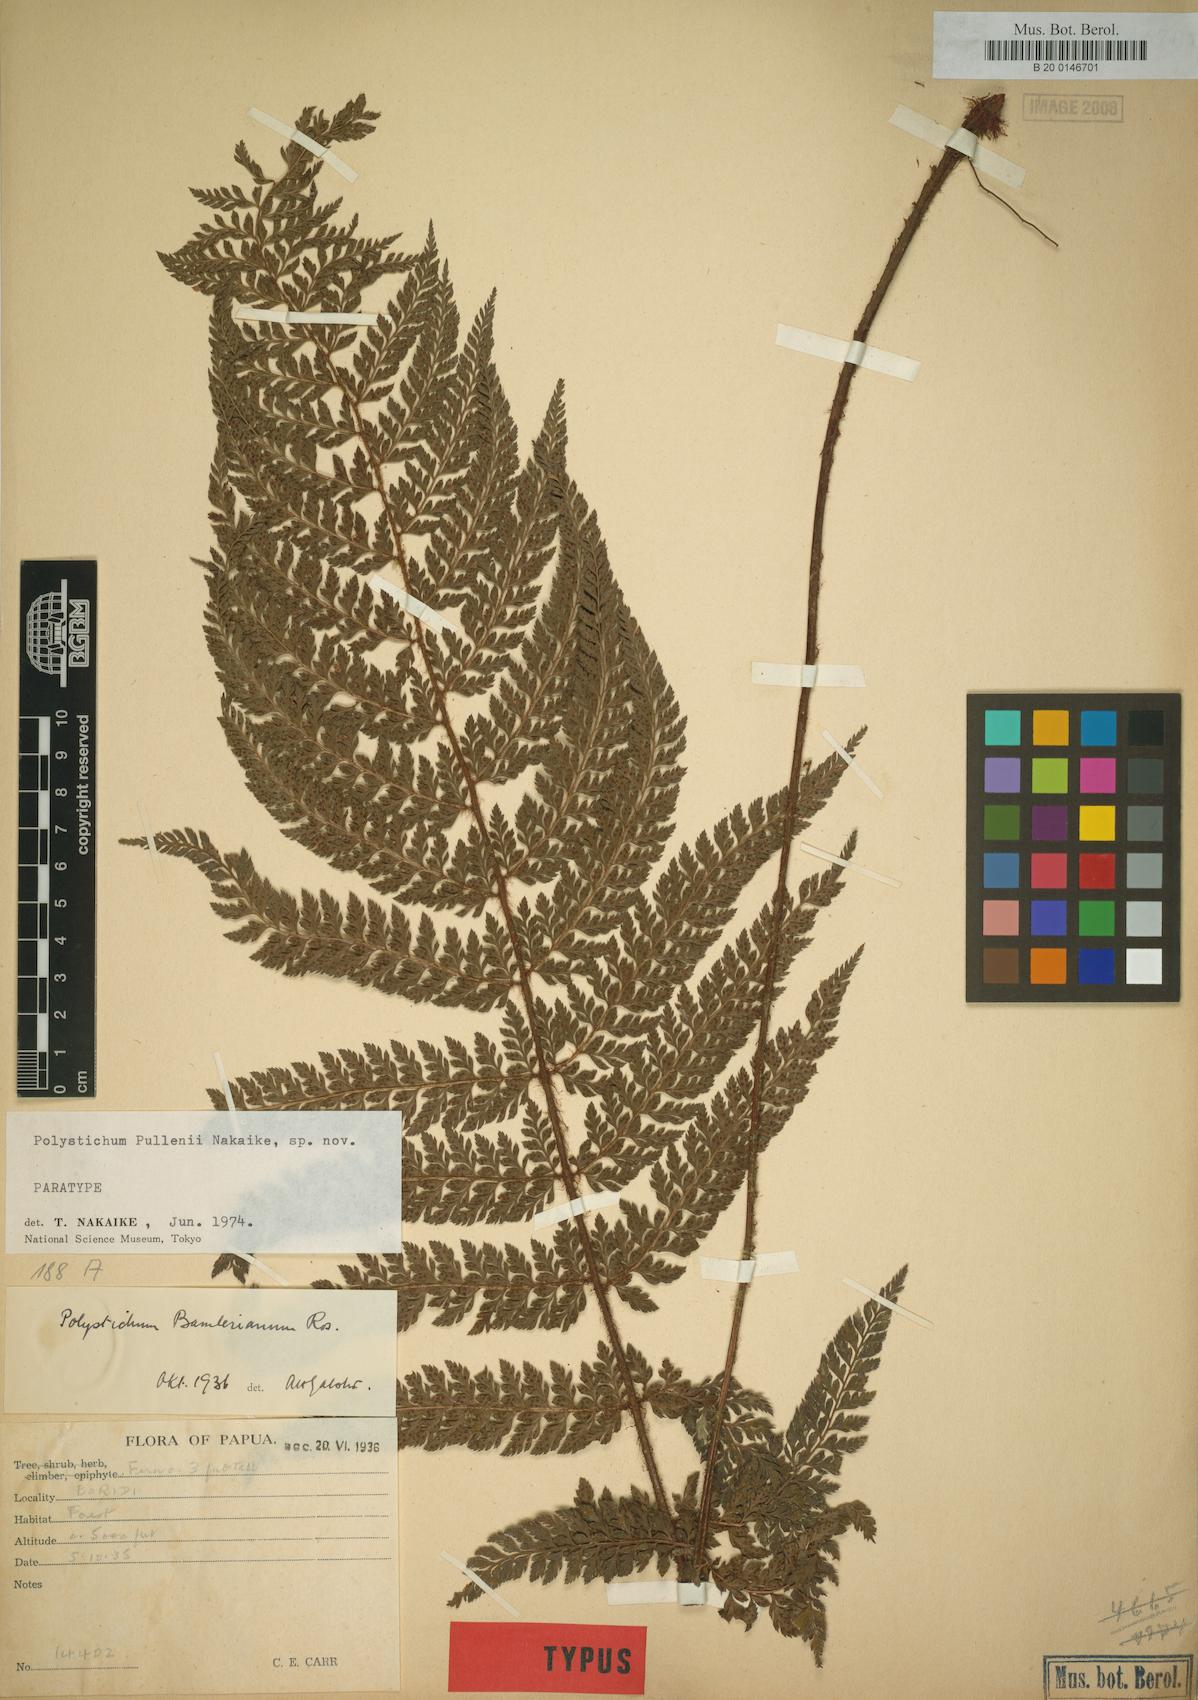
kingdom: Plantae
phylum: Tracheophyta
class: Polypodiopsida
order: Polypodiales
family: Dryopteridaceae
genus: Polystichum
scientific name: Polystichum bamlerianum
